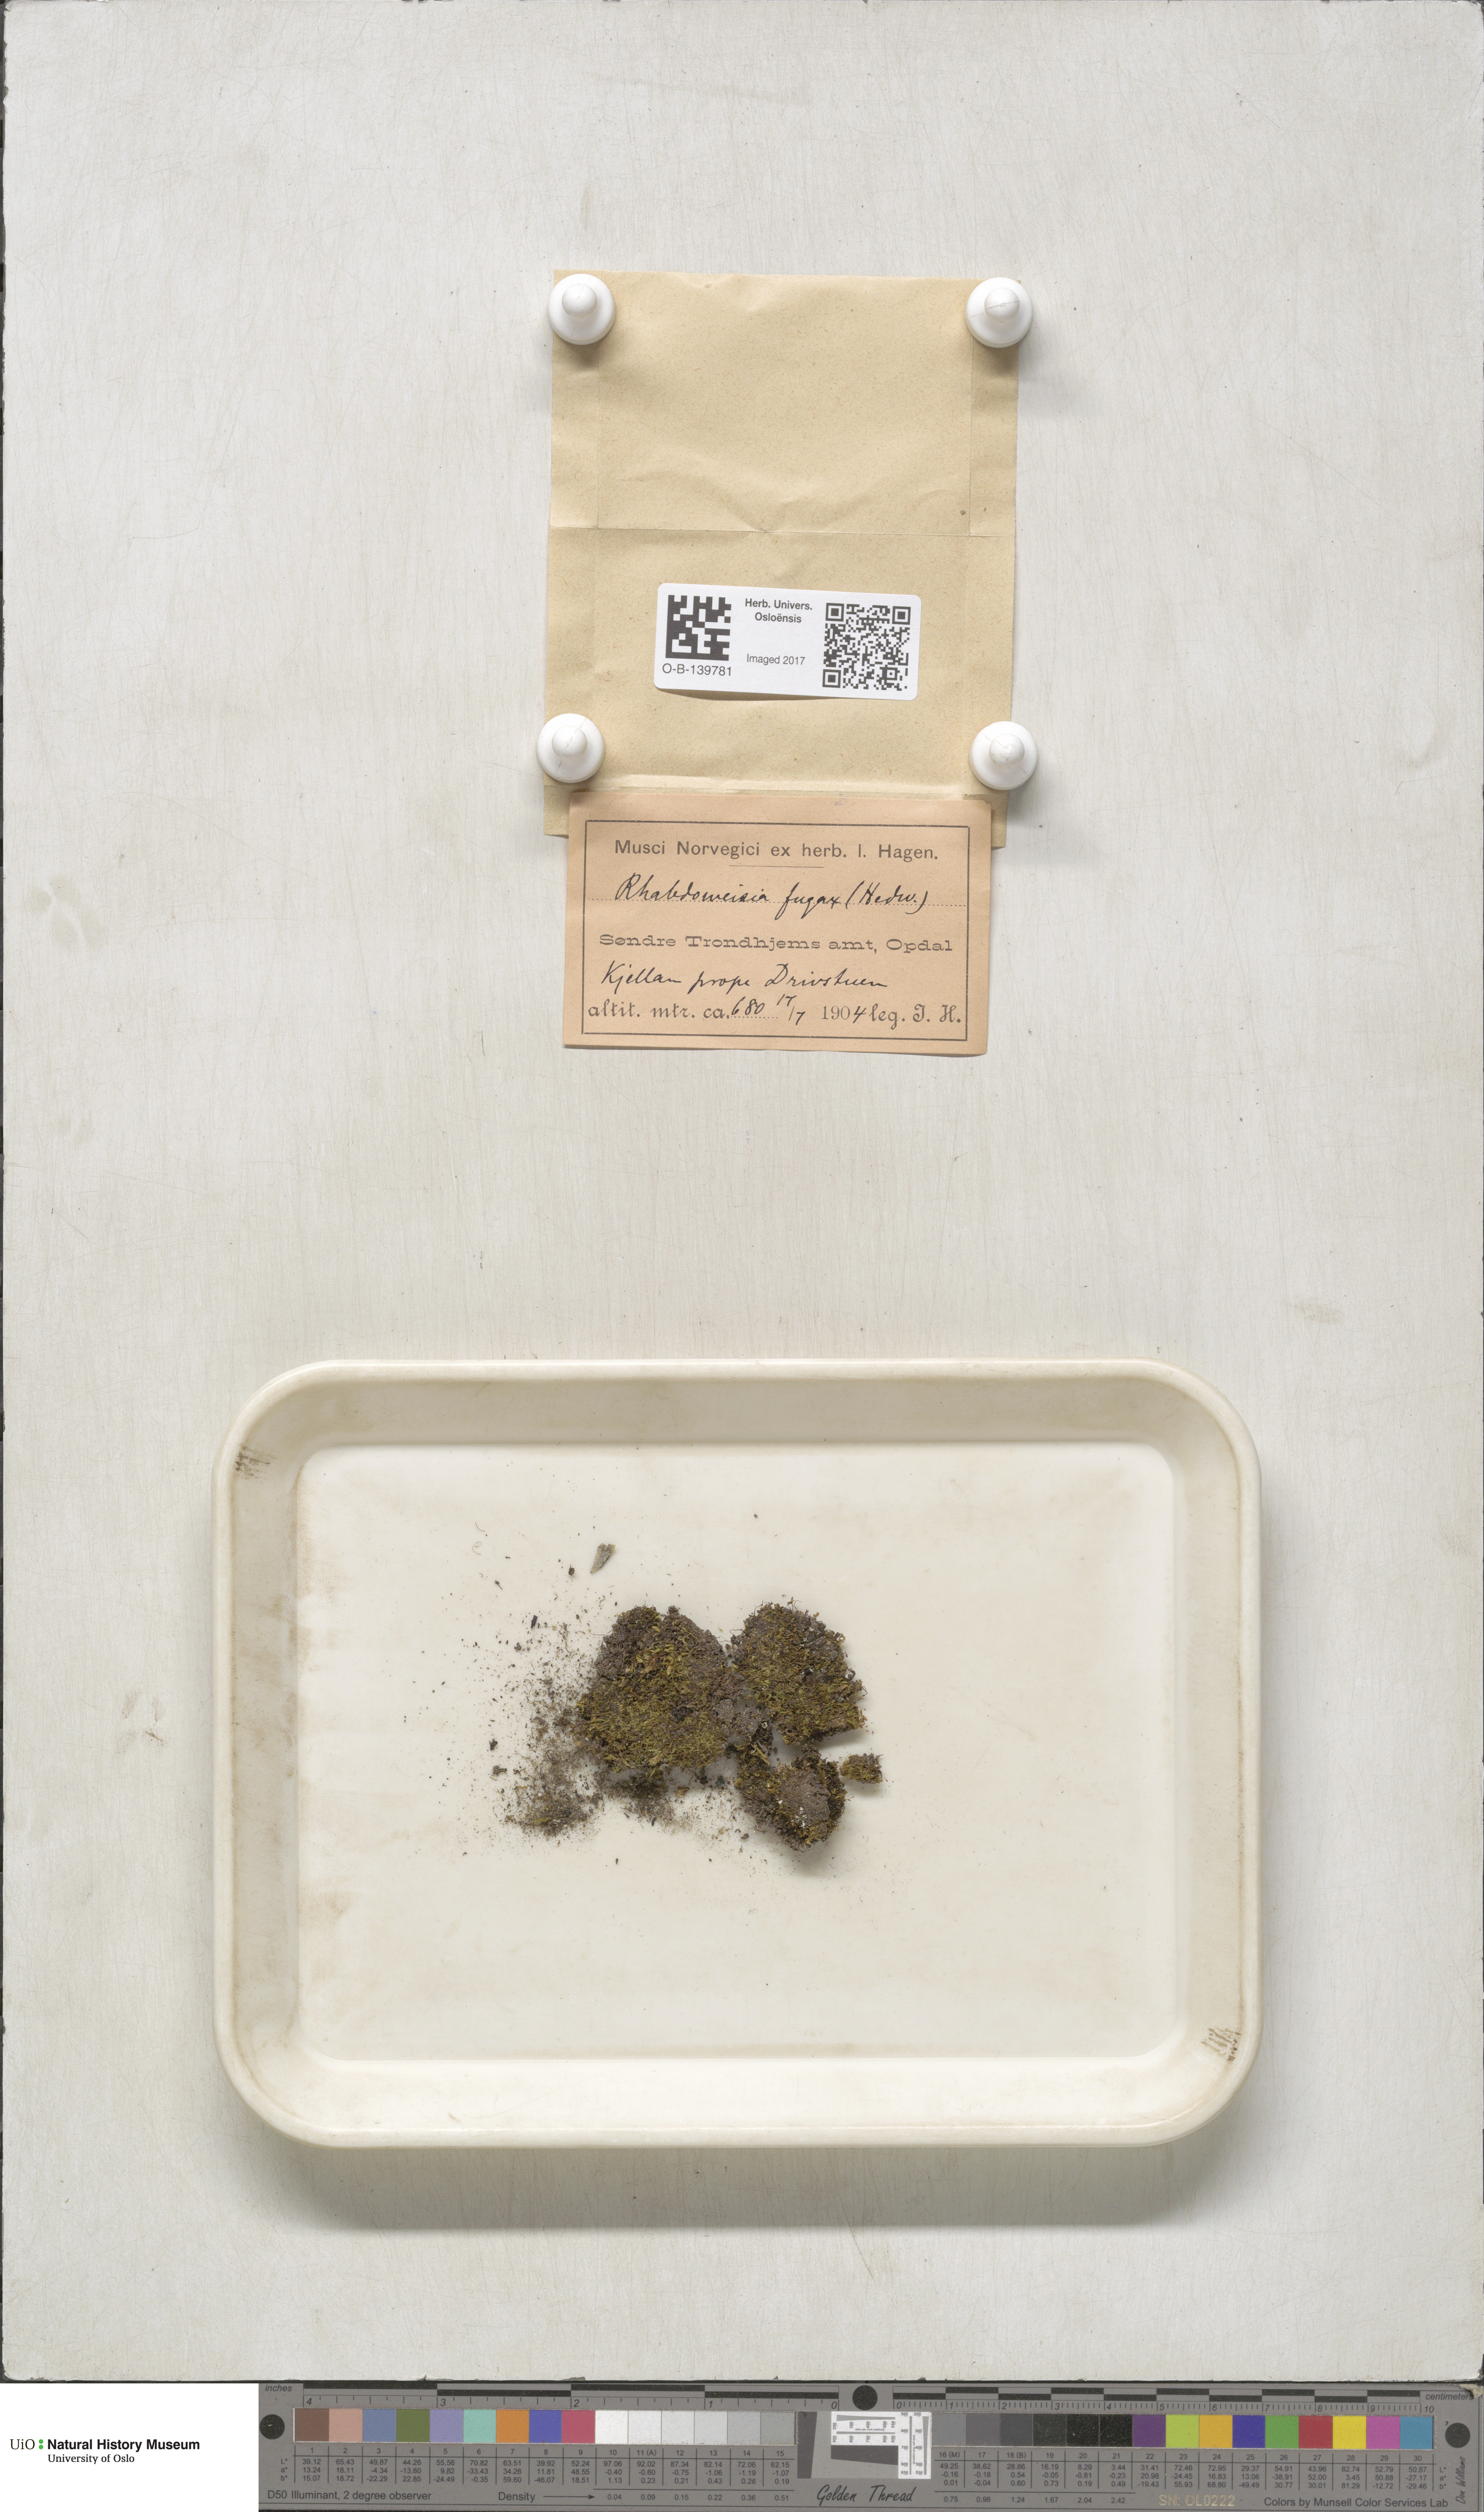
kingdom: Plantae
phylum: Bryophyta
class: Bryopsida
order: Dicranales
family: Rhabdoweisiaceae
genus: Rhabdoweisia
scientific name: Rhabdoweisia fugax
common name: Dwarf streak-moss
